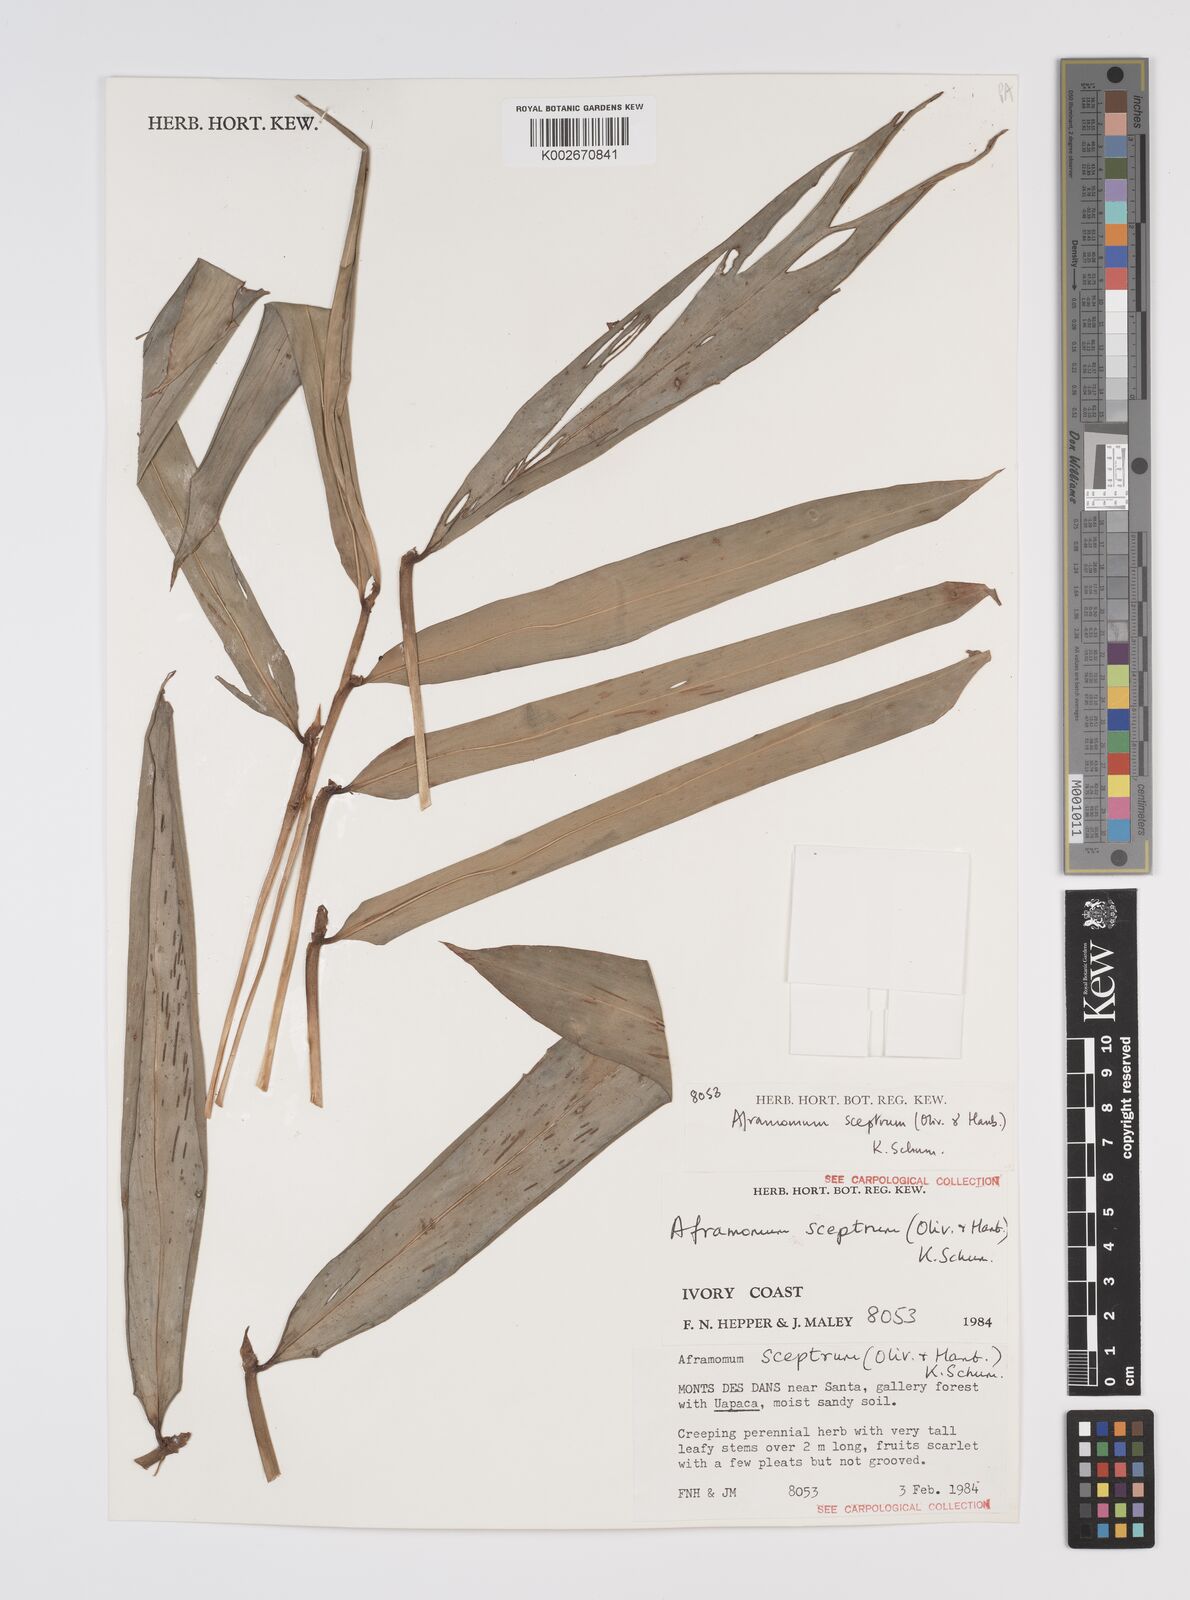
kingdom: Plantae
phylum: Tracheophyta
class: Liliopsida
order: Zingiberales
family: Zingiberaceae
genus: Aframomum
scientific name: Aframomum cereum
